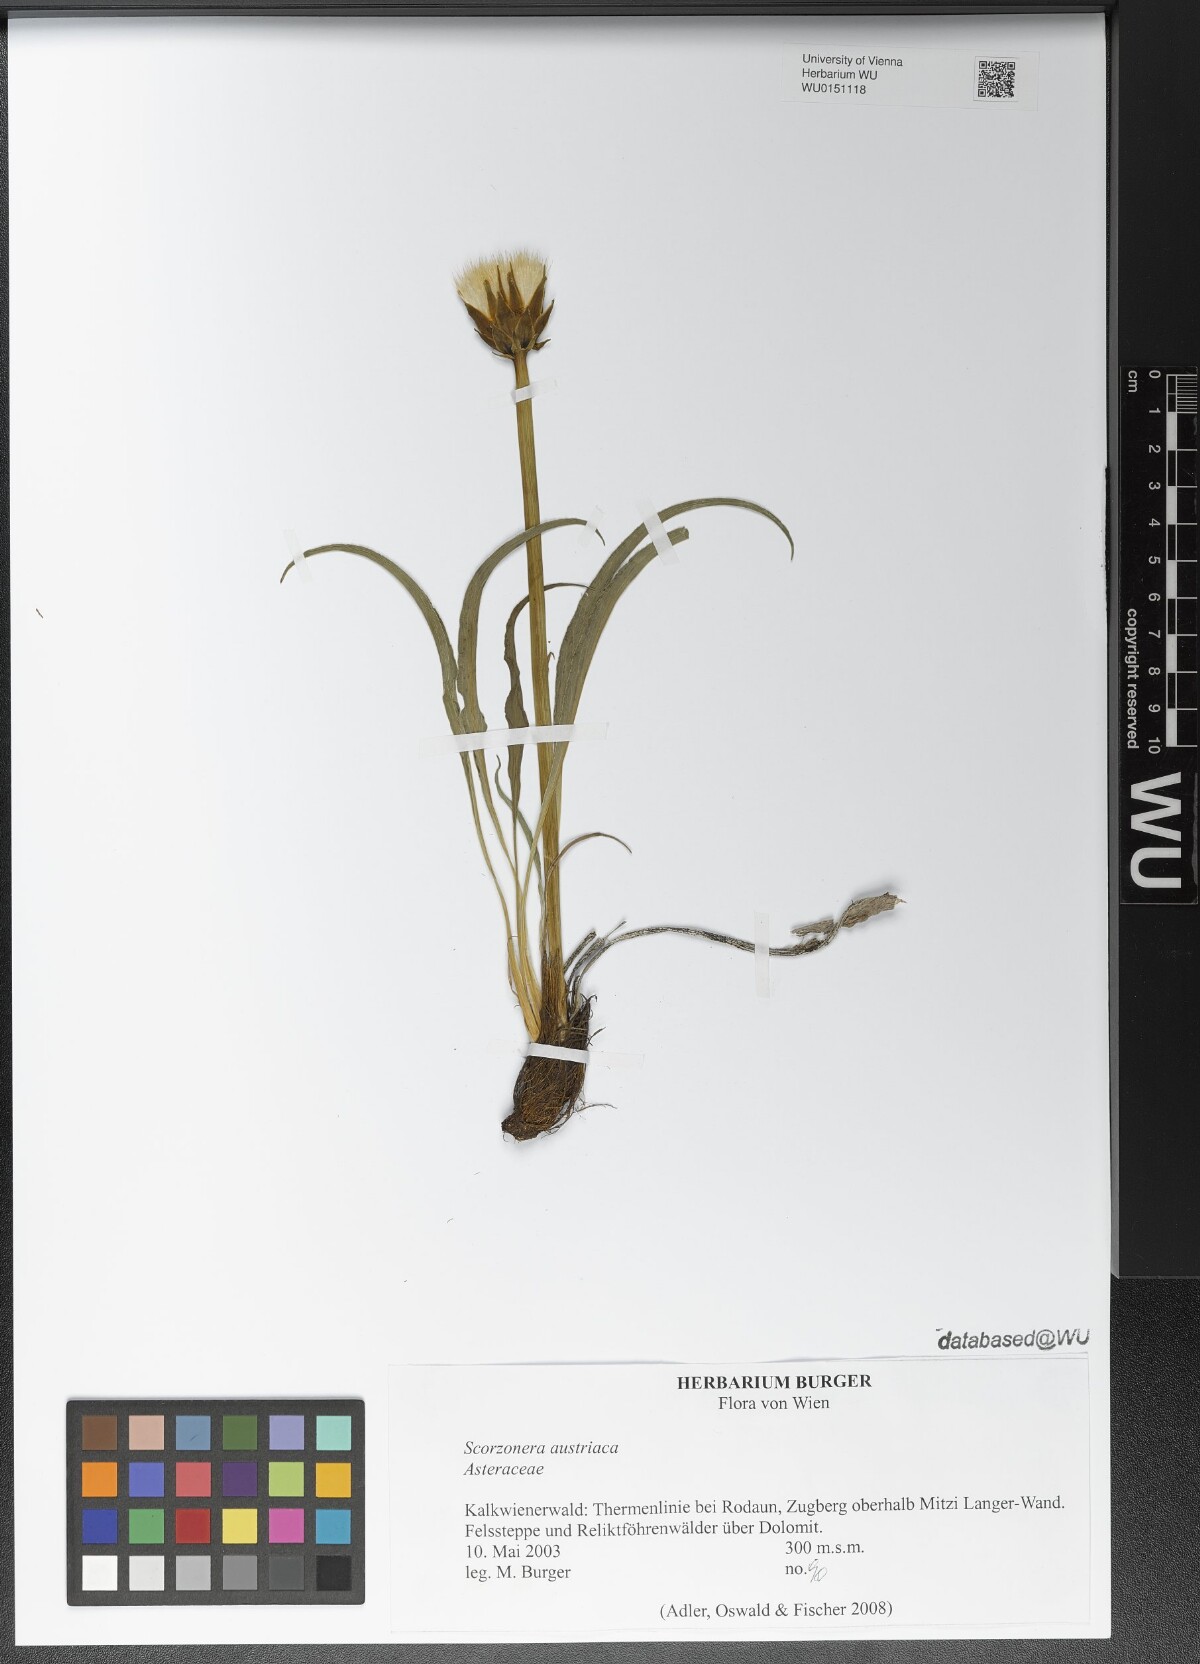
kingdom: Plantae
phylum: Tracheophyta
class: Magnoliopsida
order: Asterales
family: Asteraceae
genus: Takhtajaniantha
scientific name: Takhtajaniantha austriaca
